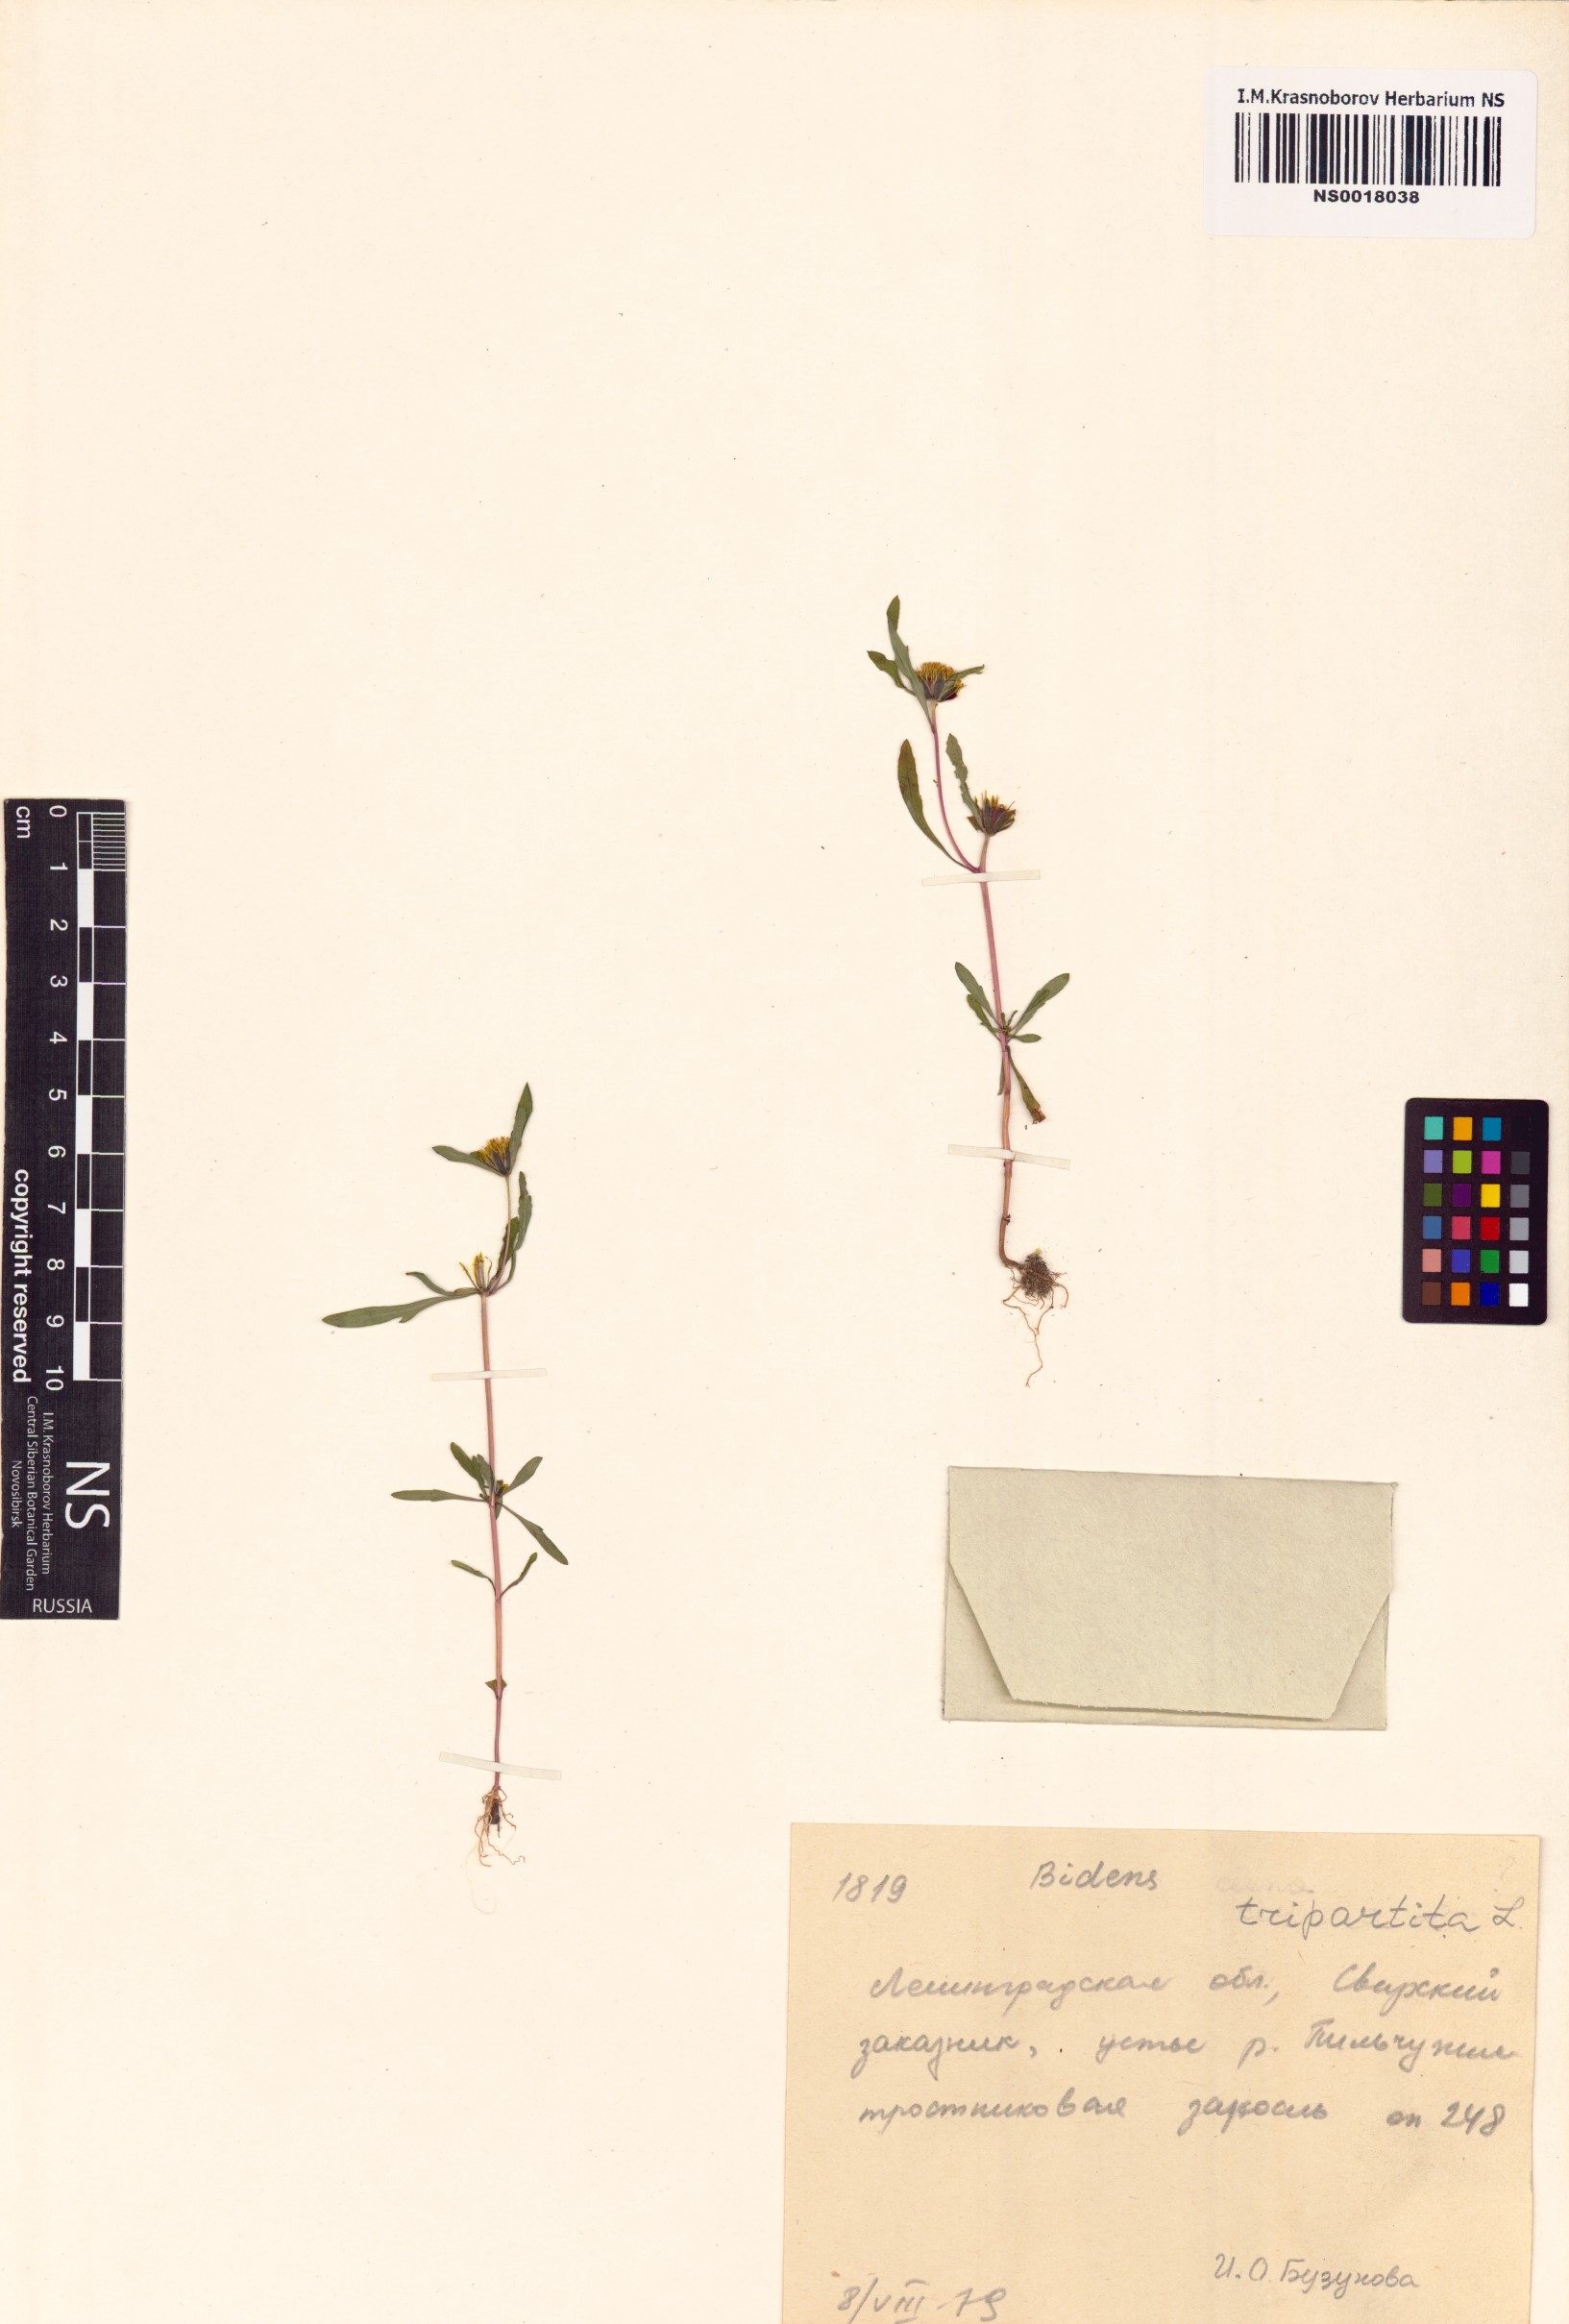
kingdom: Plantae
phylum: Tracheophyta
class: Magnoliopsida
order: Asterales
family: Asteraceae
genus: Bidens
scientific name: Bidens tripartita
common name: Trifid bur-marigold
